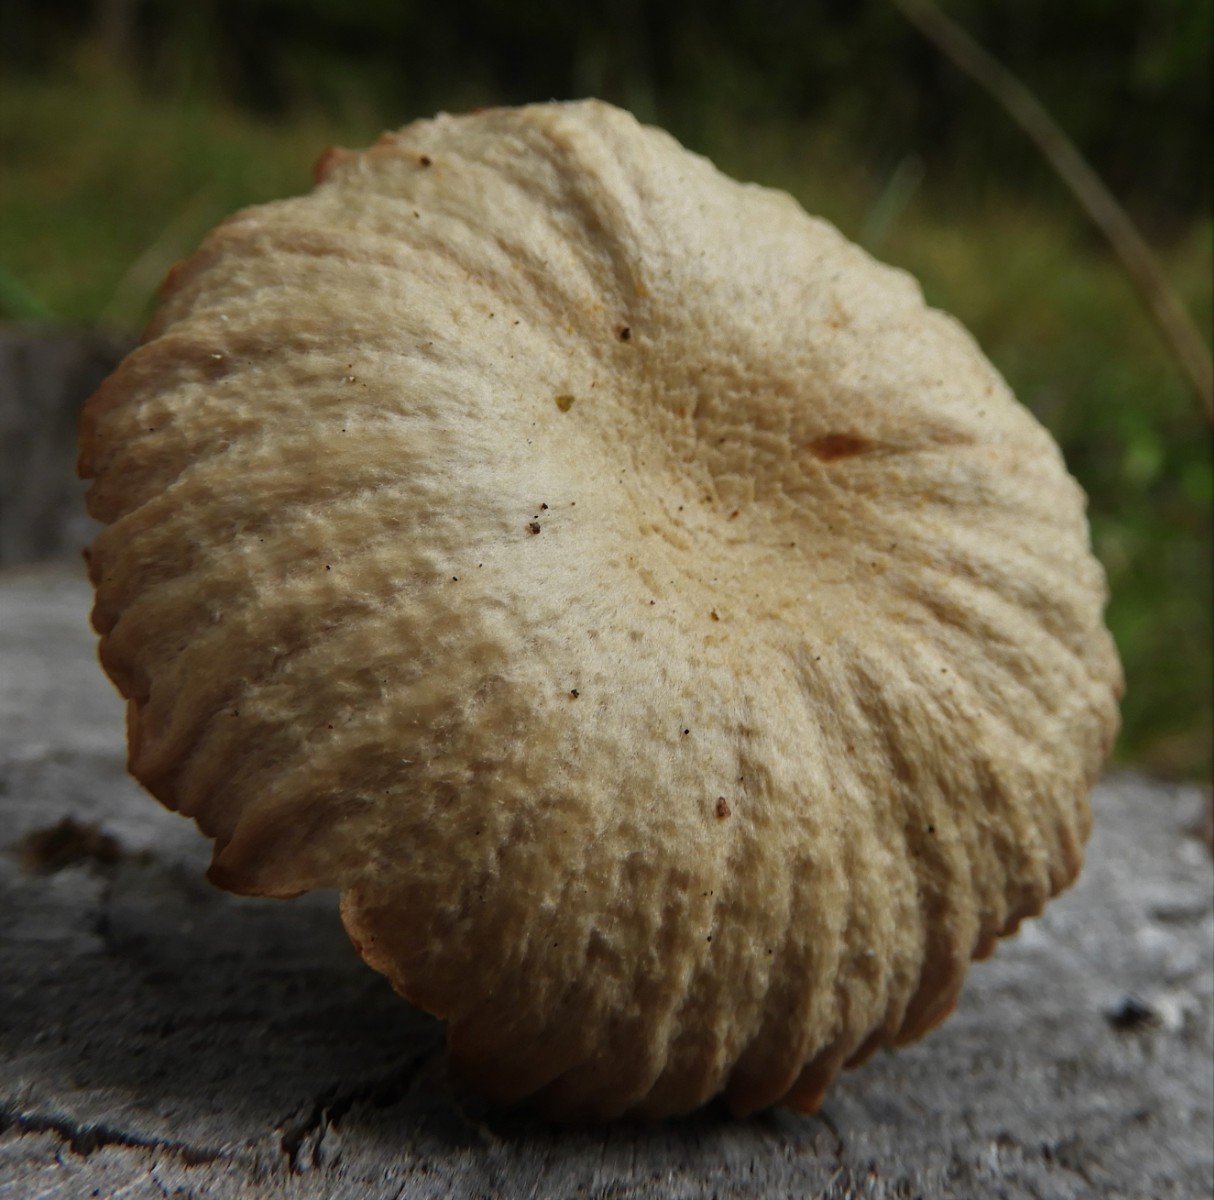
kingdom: Fungi
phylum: Basidiomycota
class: Agaricomycetes
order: Agaricales
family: Hydnangiaceae
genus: Laccaria
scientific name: Laccaria proxima
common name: stor ametysthat
